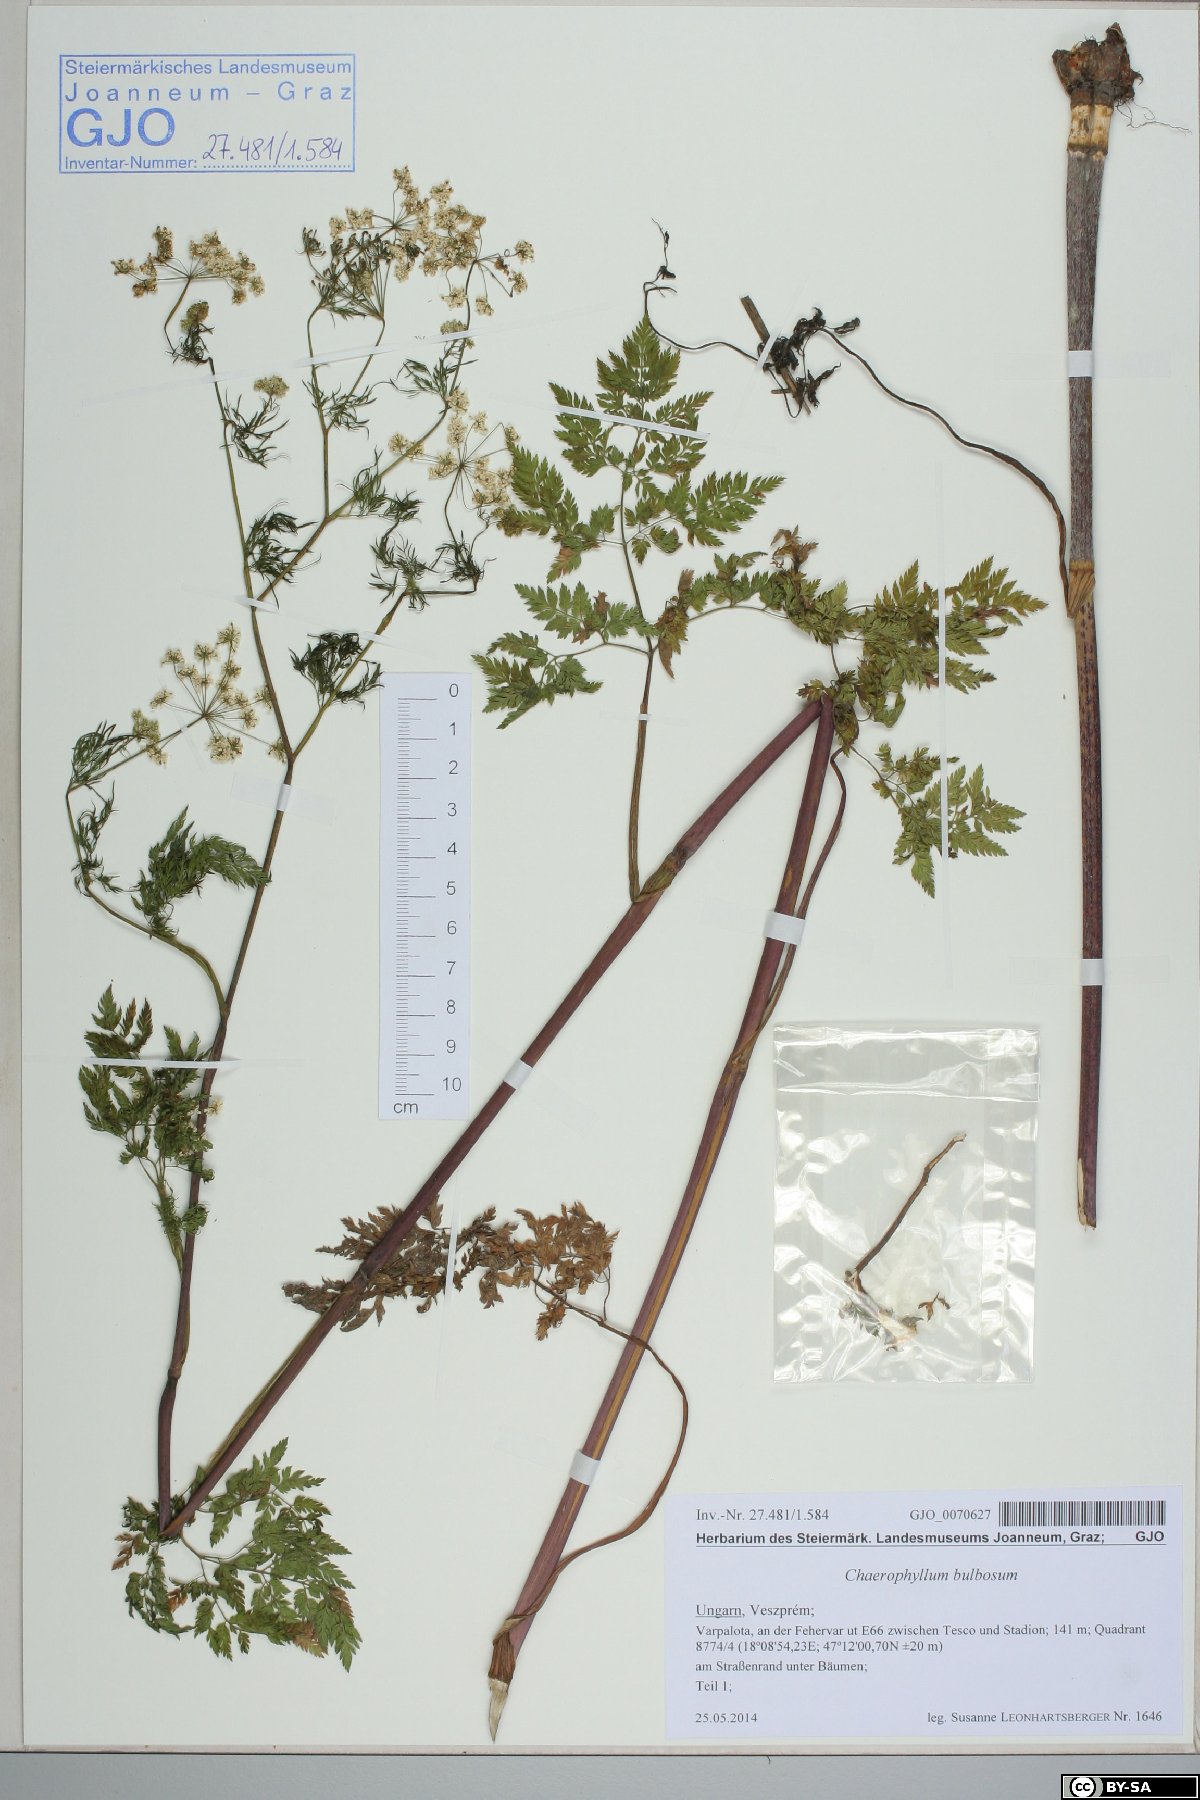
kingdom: Plantae
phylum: Tracheophyta
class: Magnoliopsida
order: Apiales
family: Apiaceae
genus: Chaerophyllum
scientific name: Chaerophyllum bulbosum
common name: Bulbous chervil
